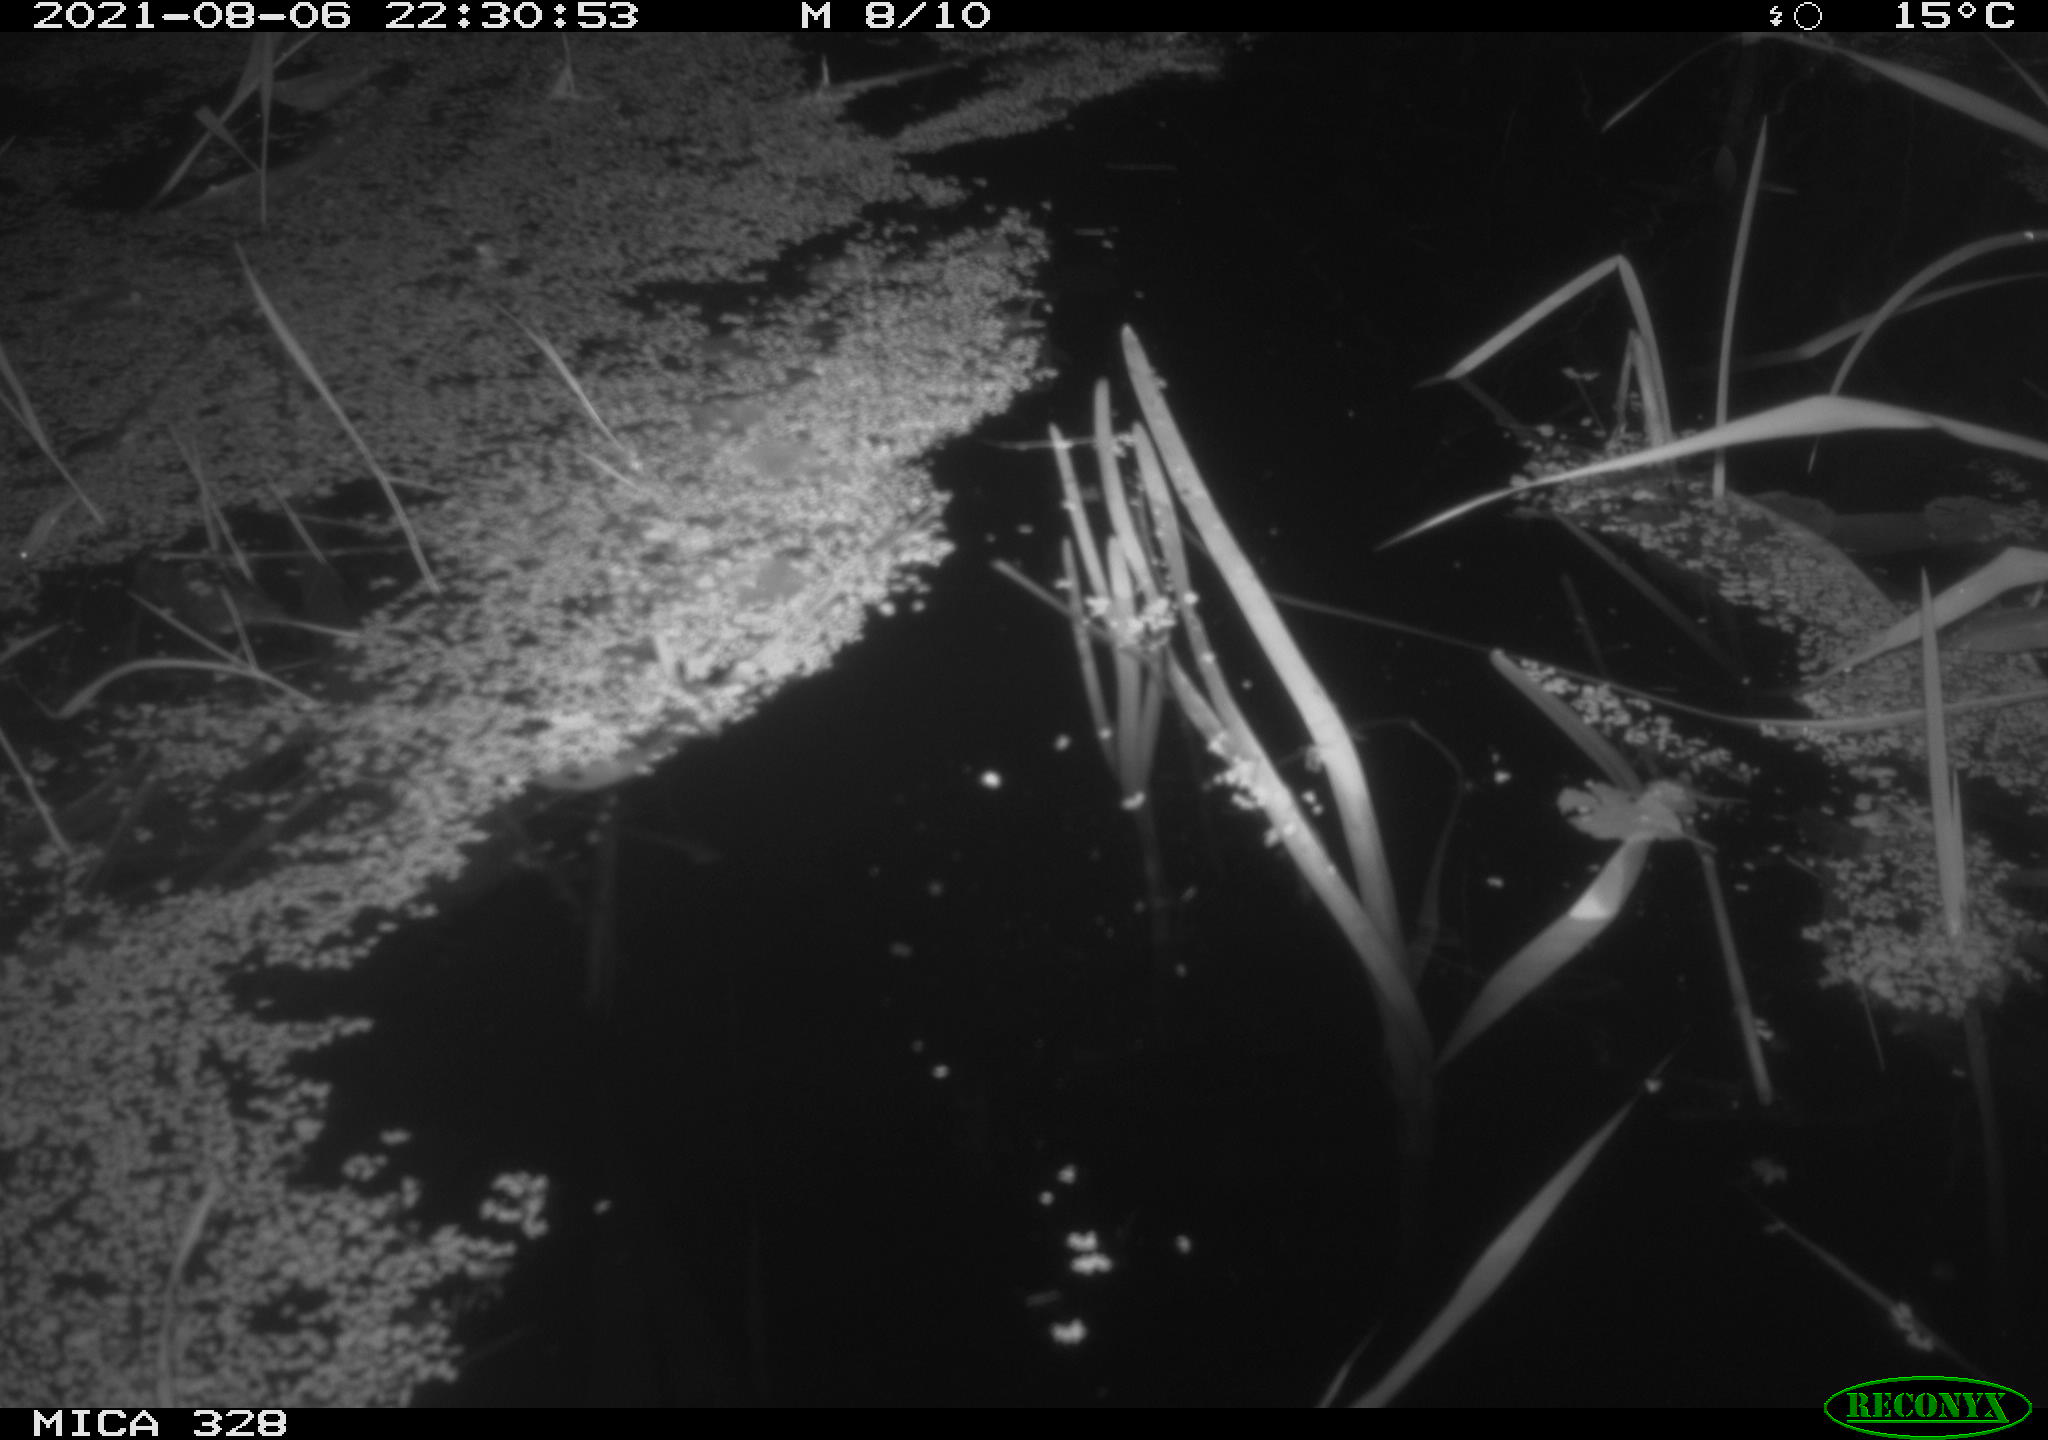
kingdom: Animalia
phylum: Chordata
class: Mammalia
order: Rodentia
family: Cricetidae
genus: Ondatra
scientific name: Ondatra zibethicus
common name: Muskrat
